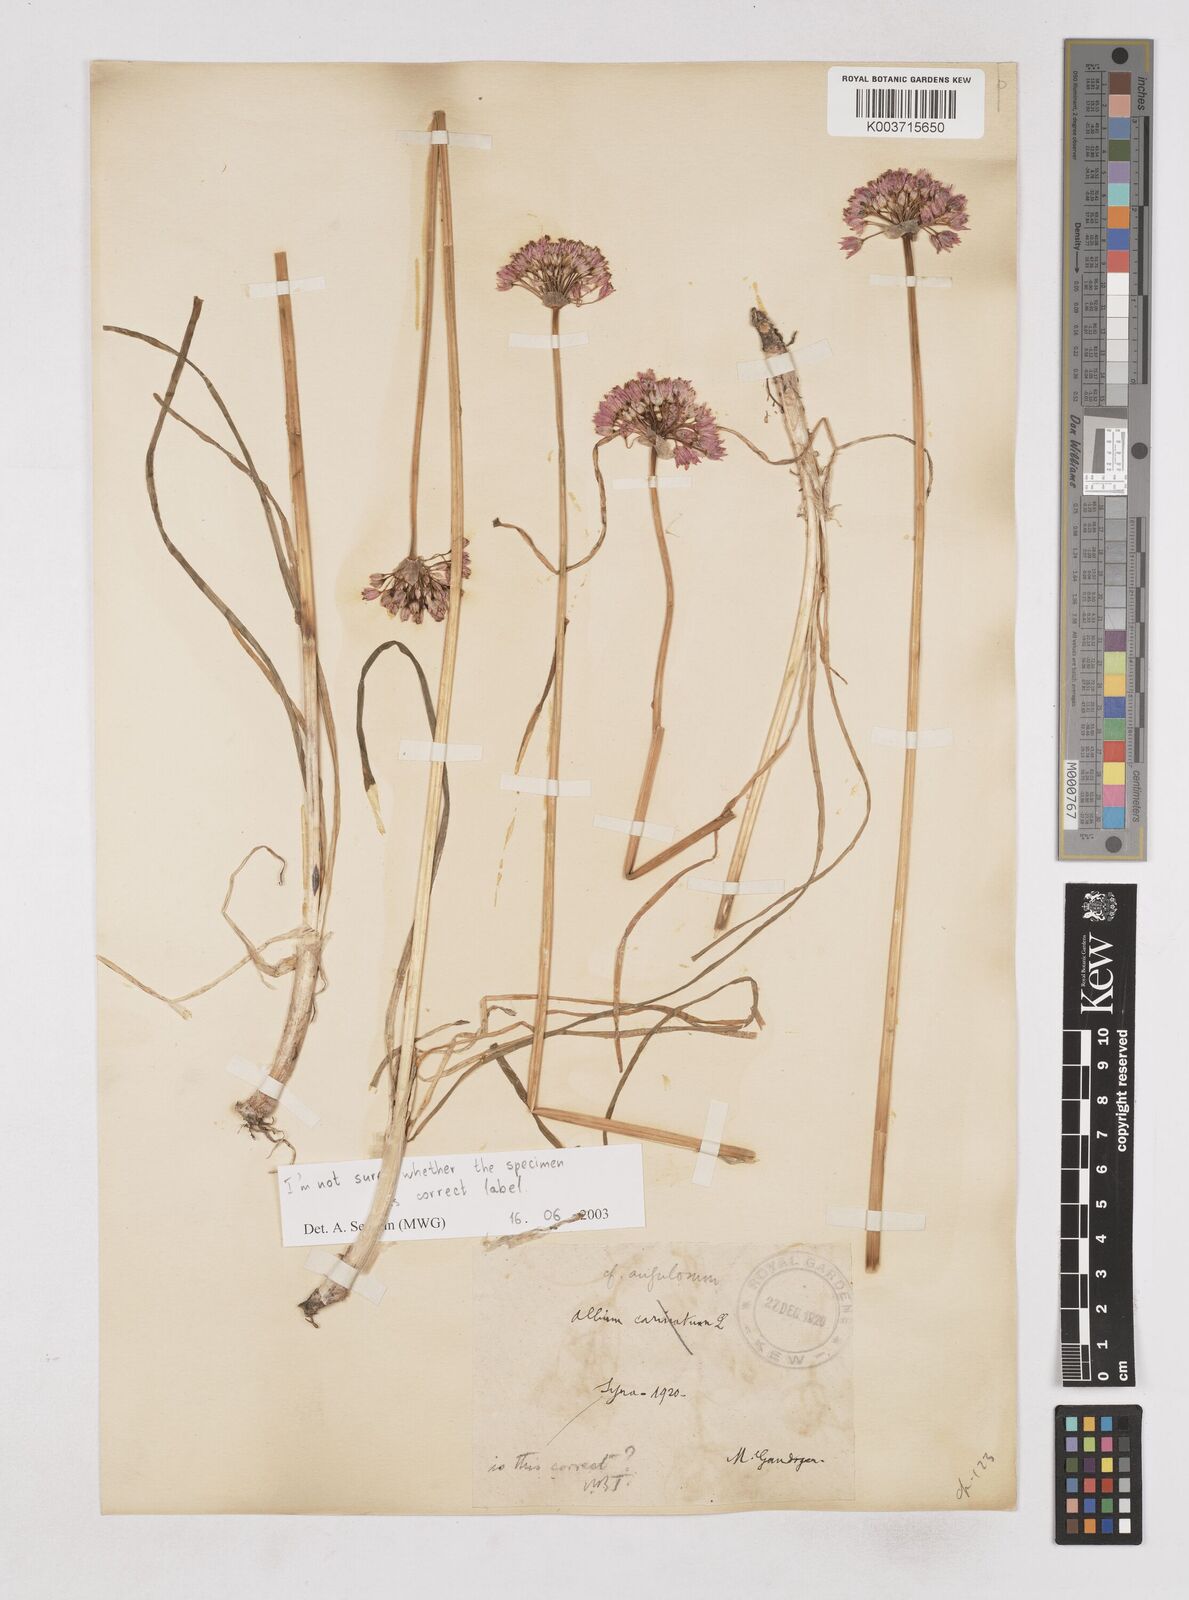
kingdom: Plantae
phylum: Tracheophyta
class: Liliopsida
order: Asparagales
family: Amaryllidaceae
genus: Allium
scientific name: Allium
